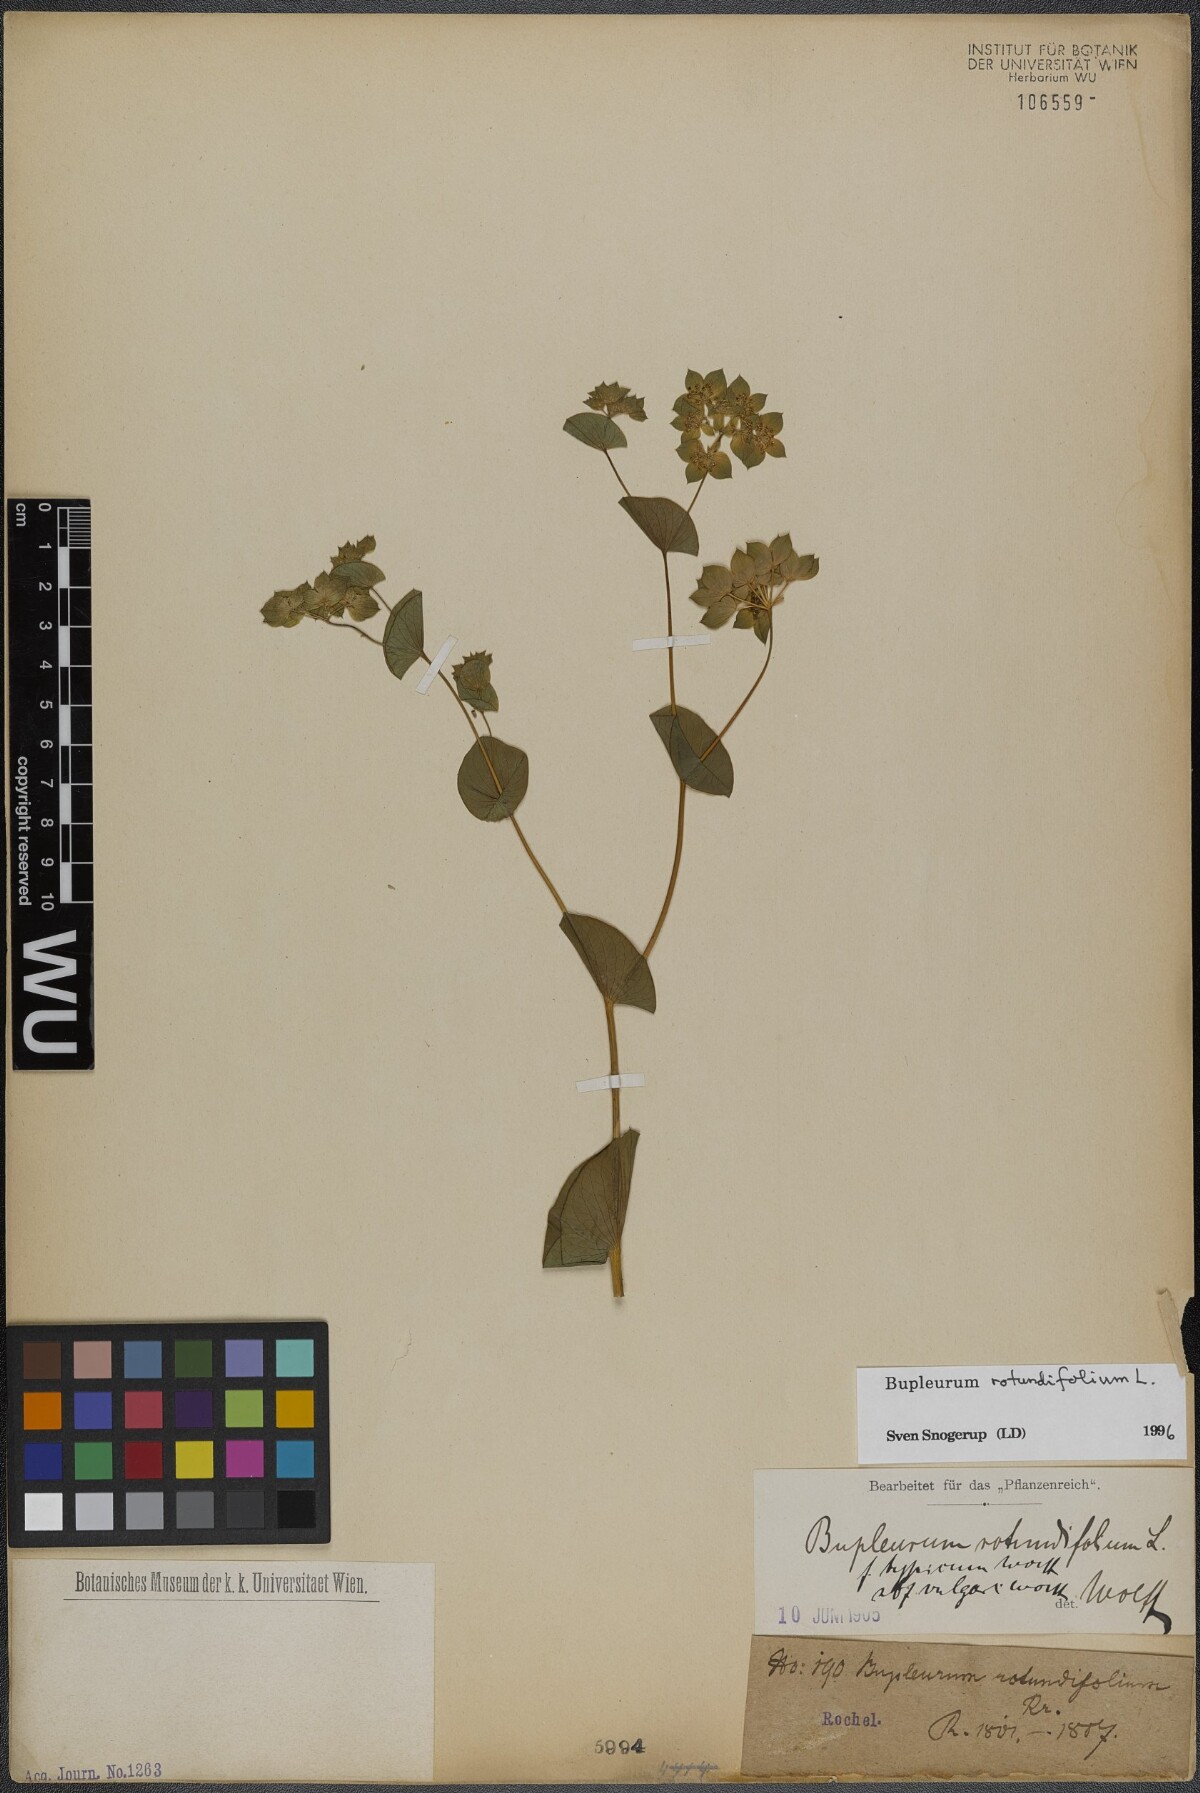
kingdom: Plantae
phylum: Tracheophyta
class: Magnoliopsida
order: Apiales
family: Apiaceae
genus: Bupleurum
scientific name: Bupleurum rotundifolium
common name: Thorow-wax
